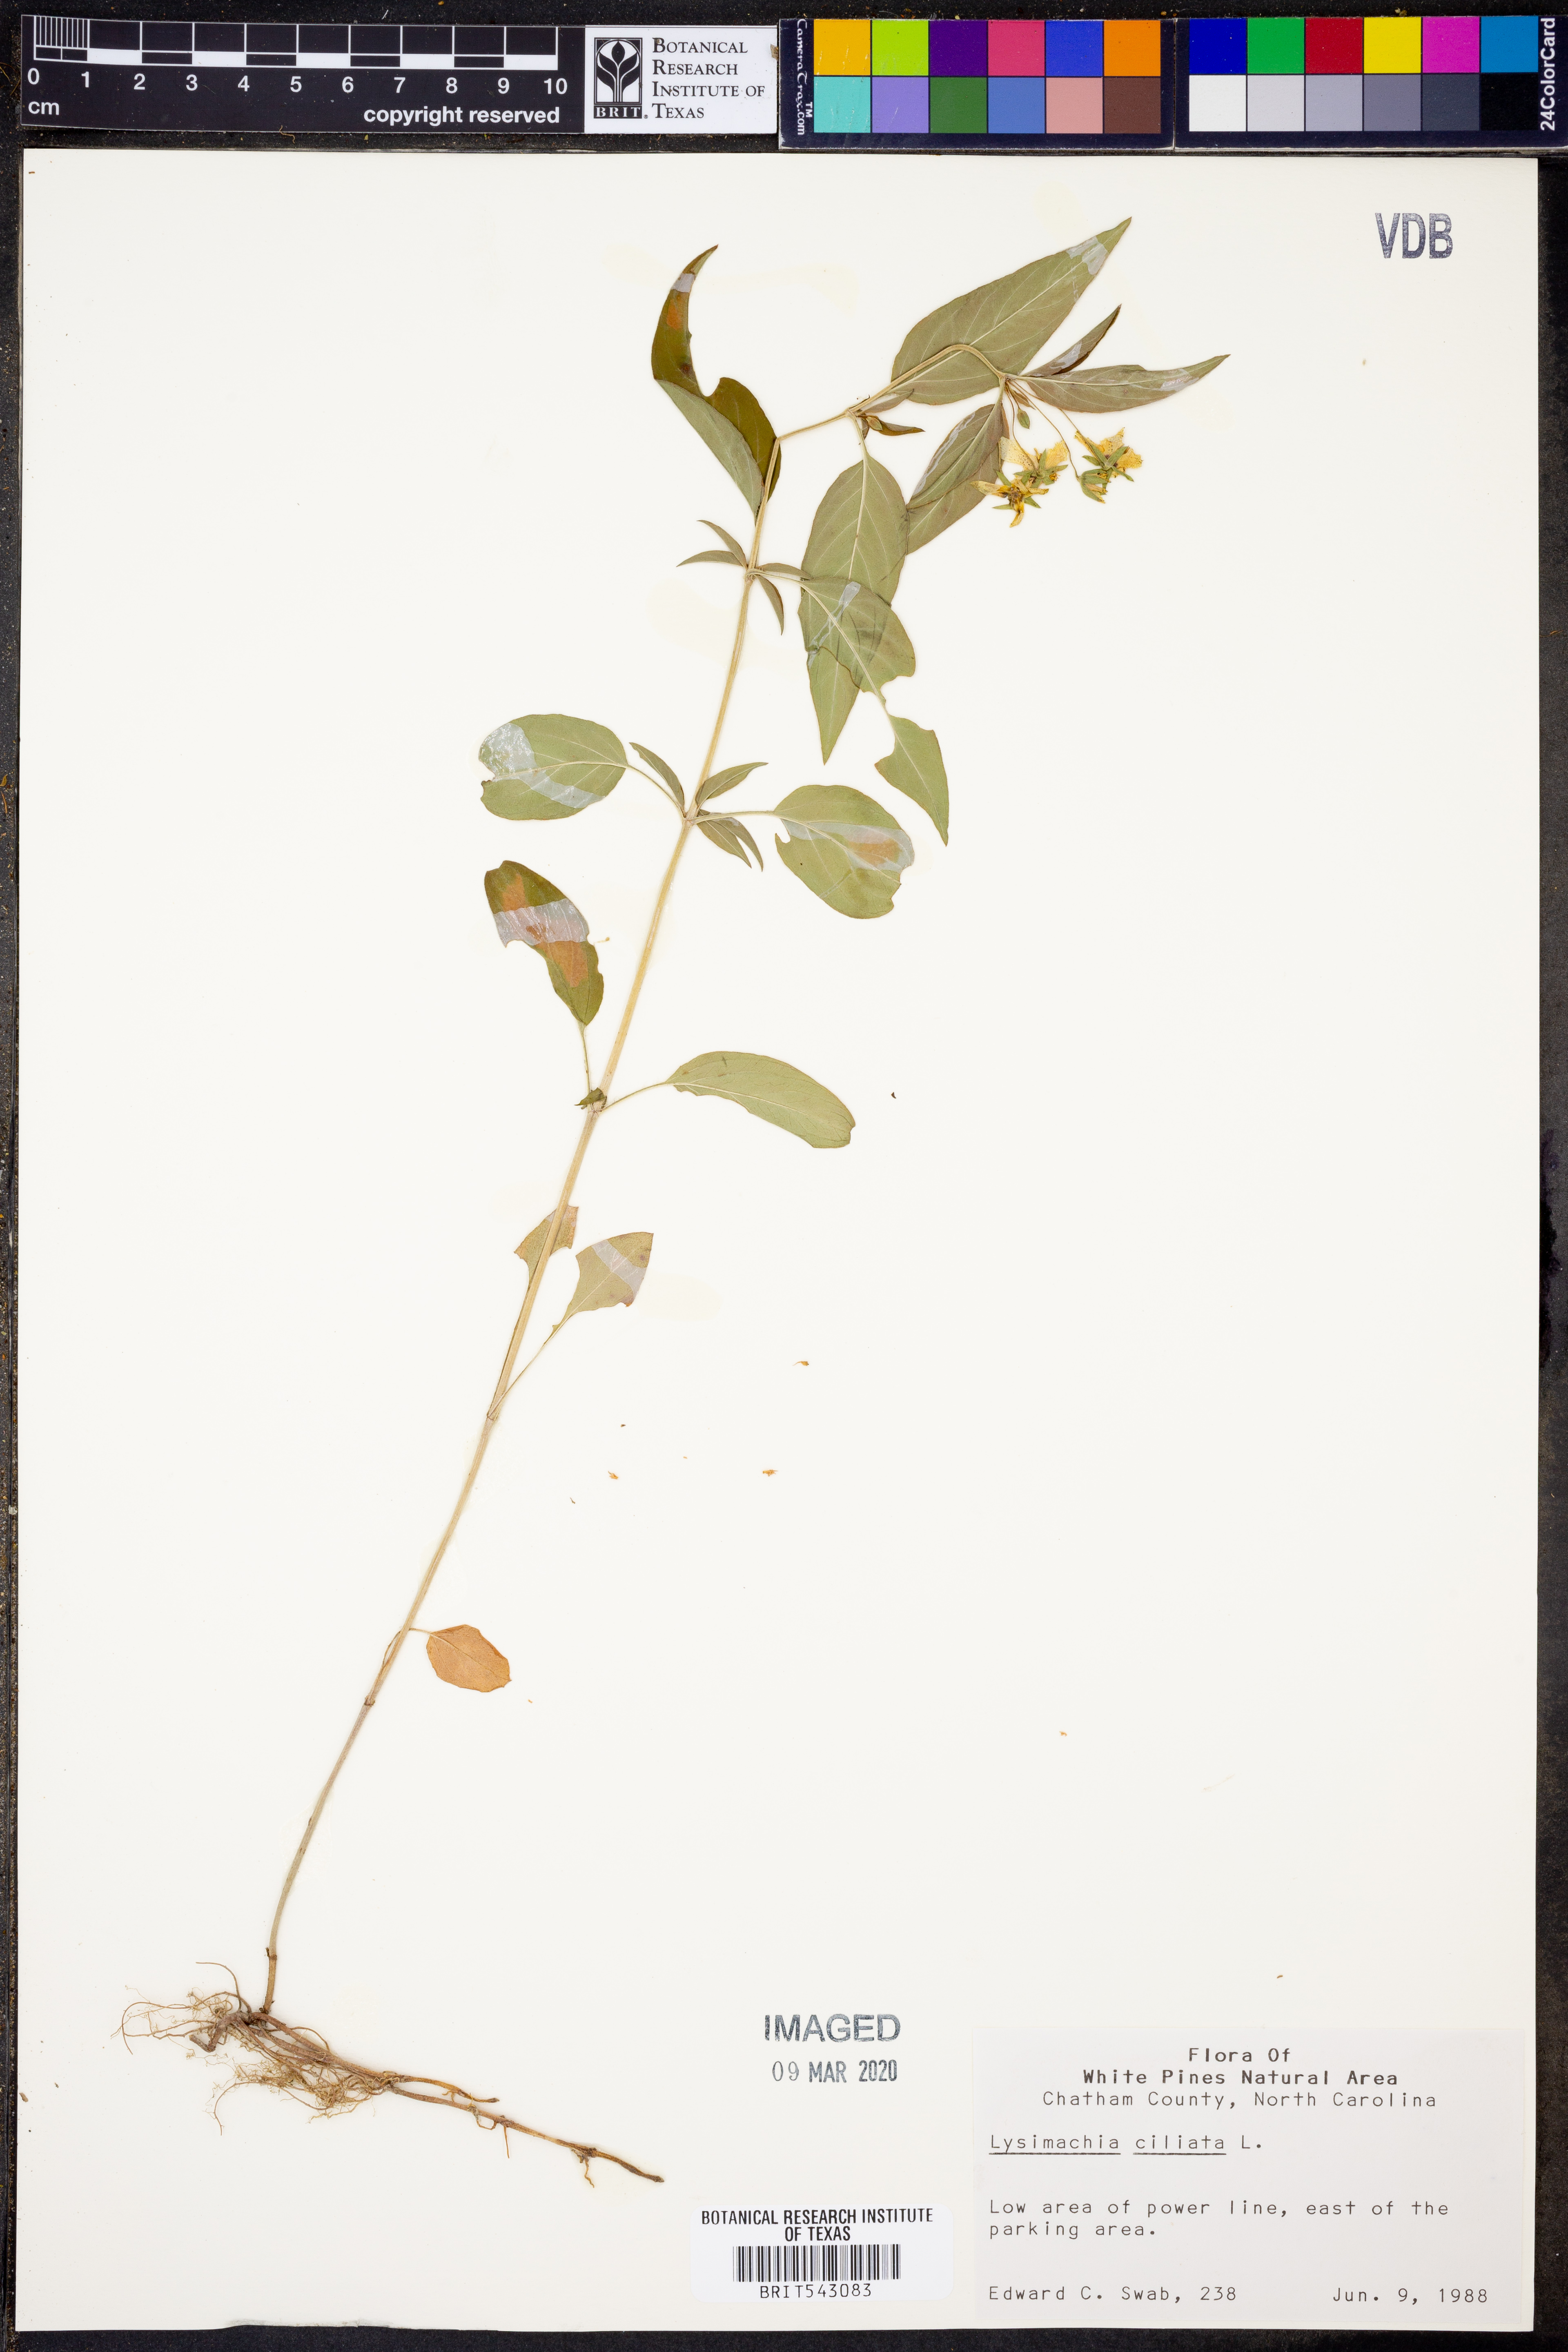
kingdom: Plantae
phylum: Tracheophyta
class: Magnoliopsida
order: Ericales
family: Primulaceae
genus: Lysimachia
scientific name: Lysimachia ciliata
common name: Fringed loosestrife
